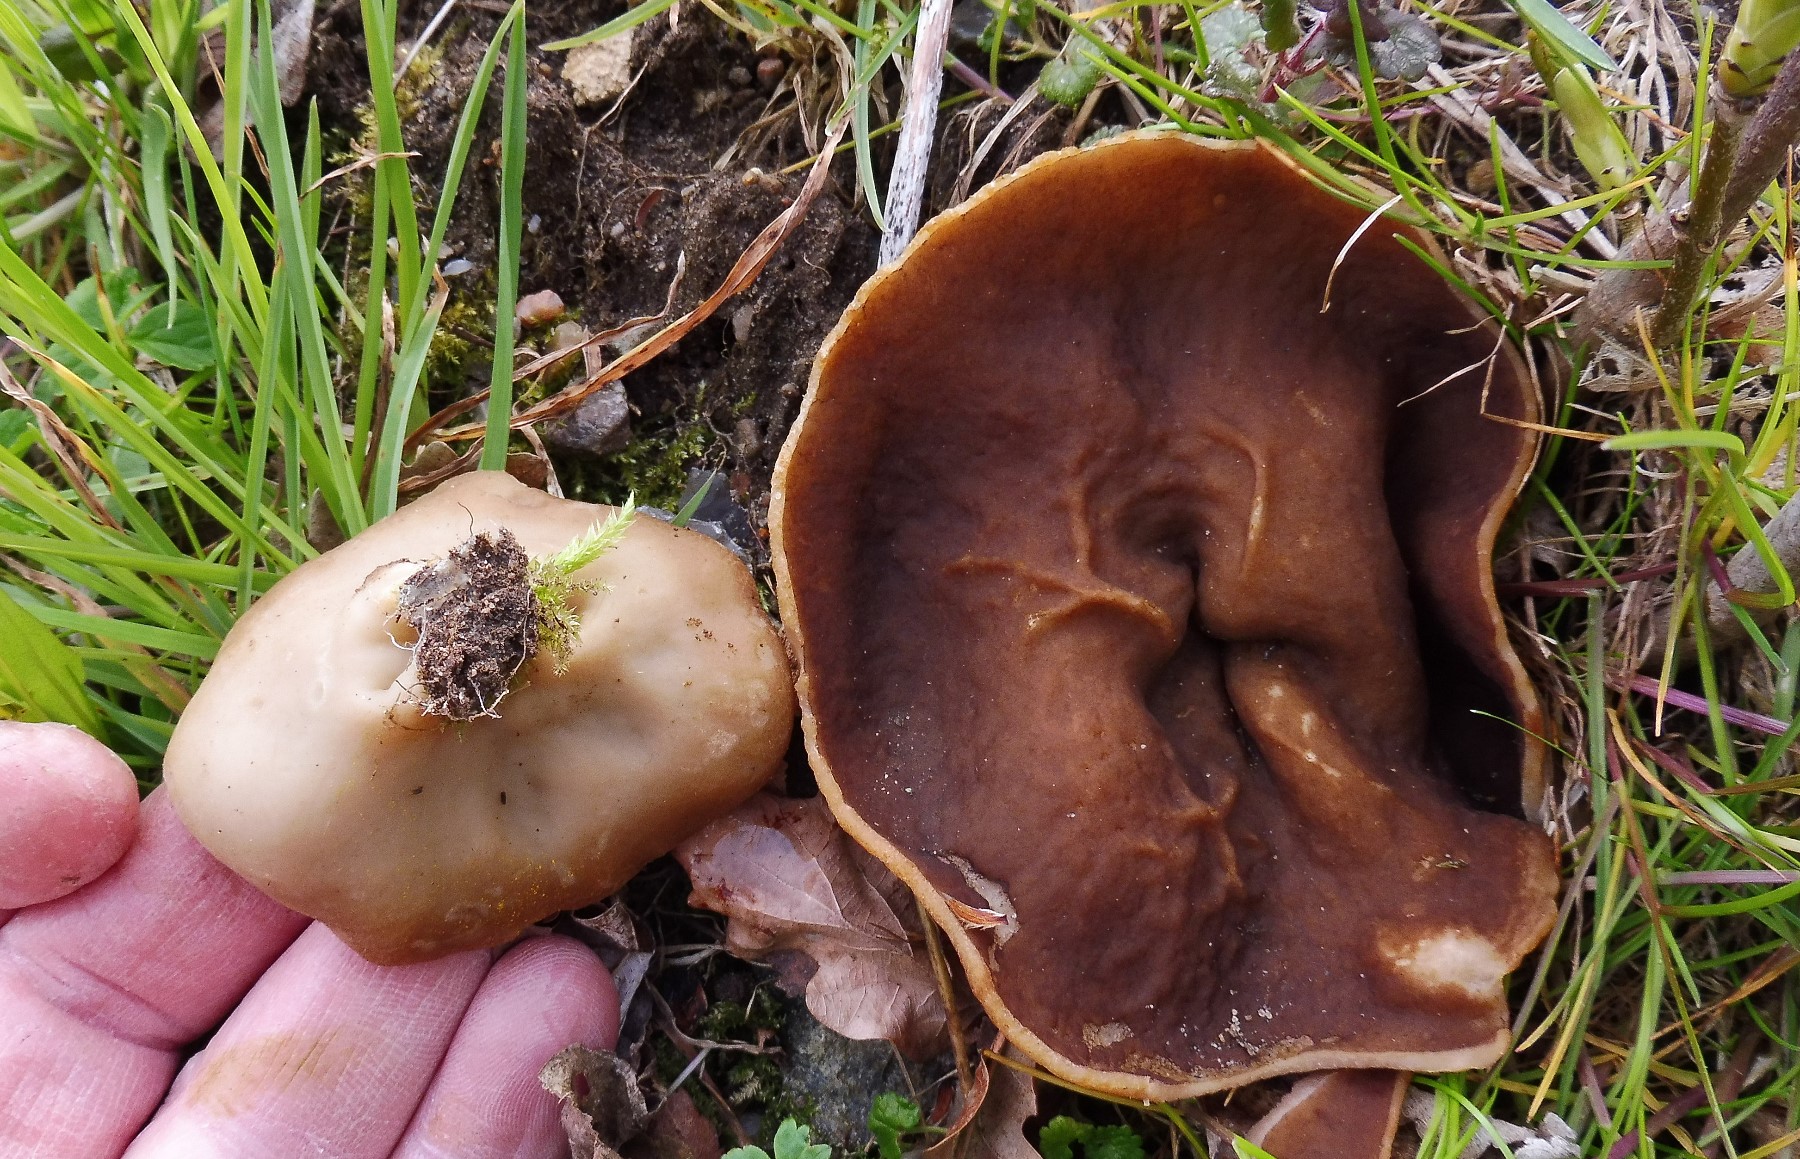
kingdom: Fungi
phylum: Ascomycota
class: Pezizomycetes
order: Pezizales
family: Morchellaceae
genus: Disciotis
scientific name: Disciotis venosa
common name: klor-bægermorkel
